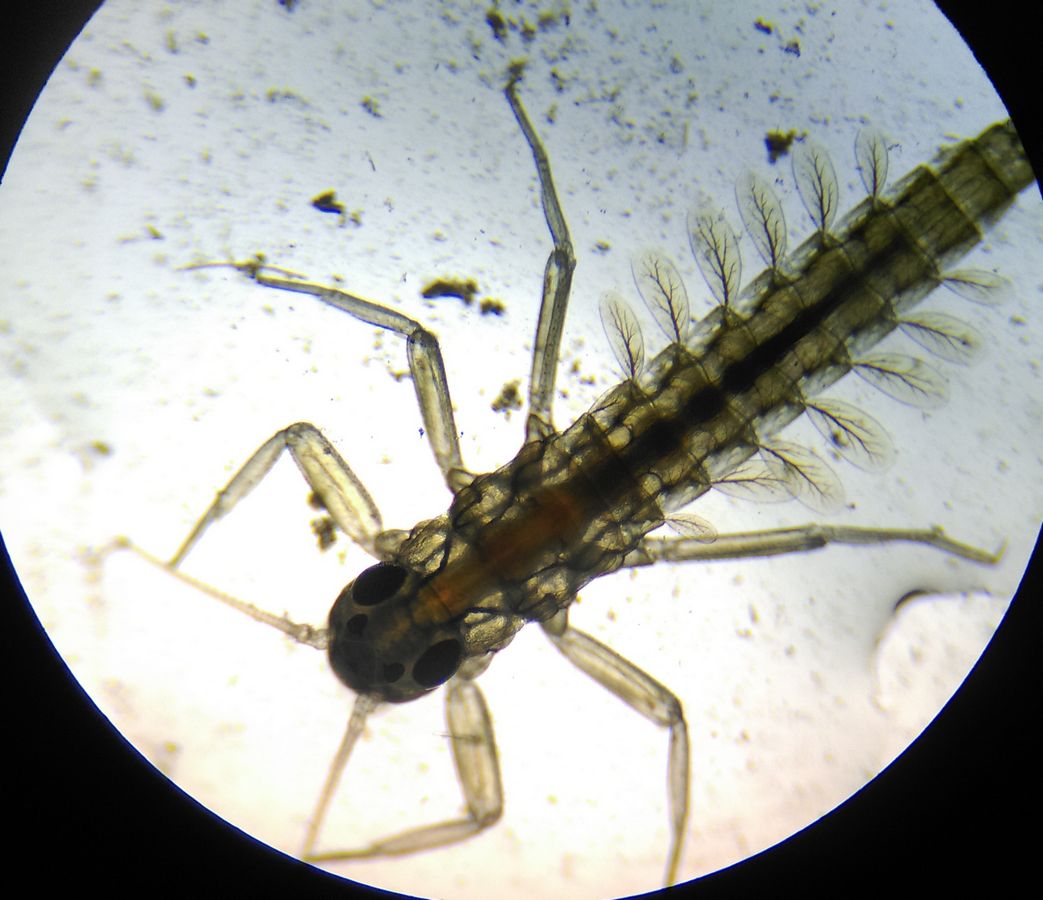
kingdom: Animalia
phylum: Arthropoda
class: Insecta
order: Ephemeroptera
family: Baetidae
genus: Cloeon
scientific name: Cloeon
